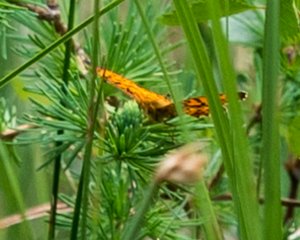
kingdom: Animalia
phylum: Arthropoda
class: Insecta
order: Lepidoptera
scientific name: Lepidoptera
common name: Butterflies
